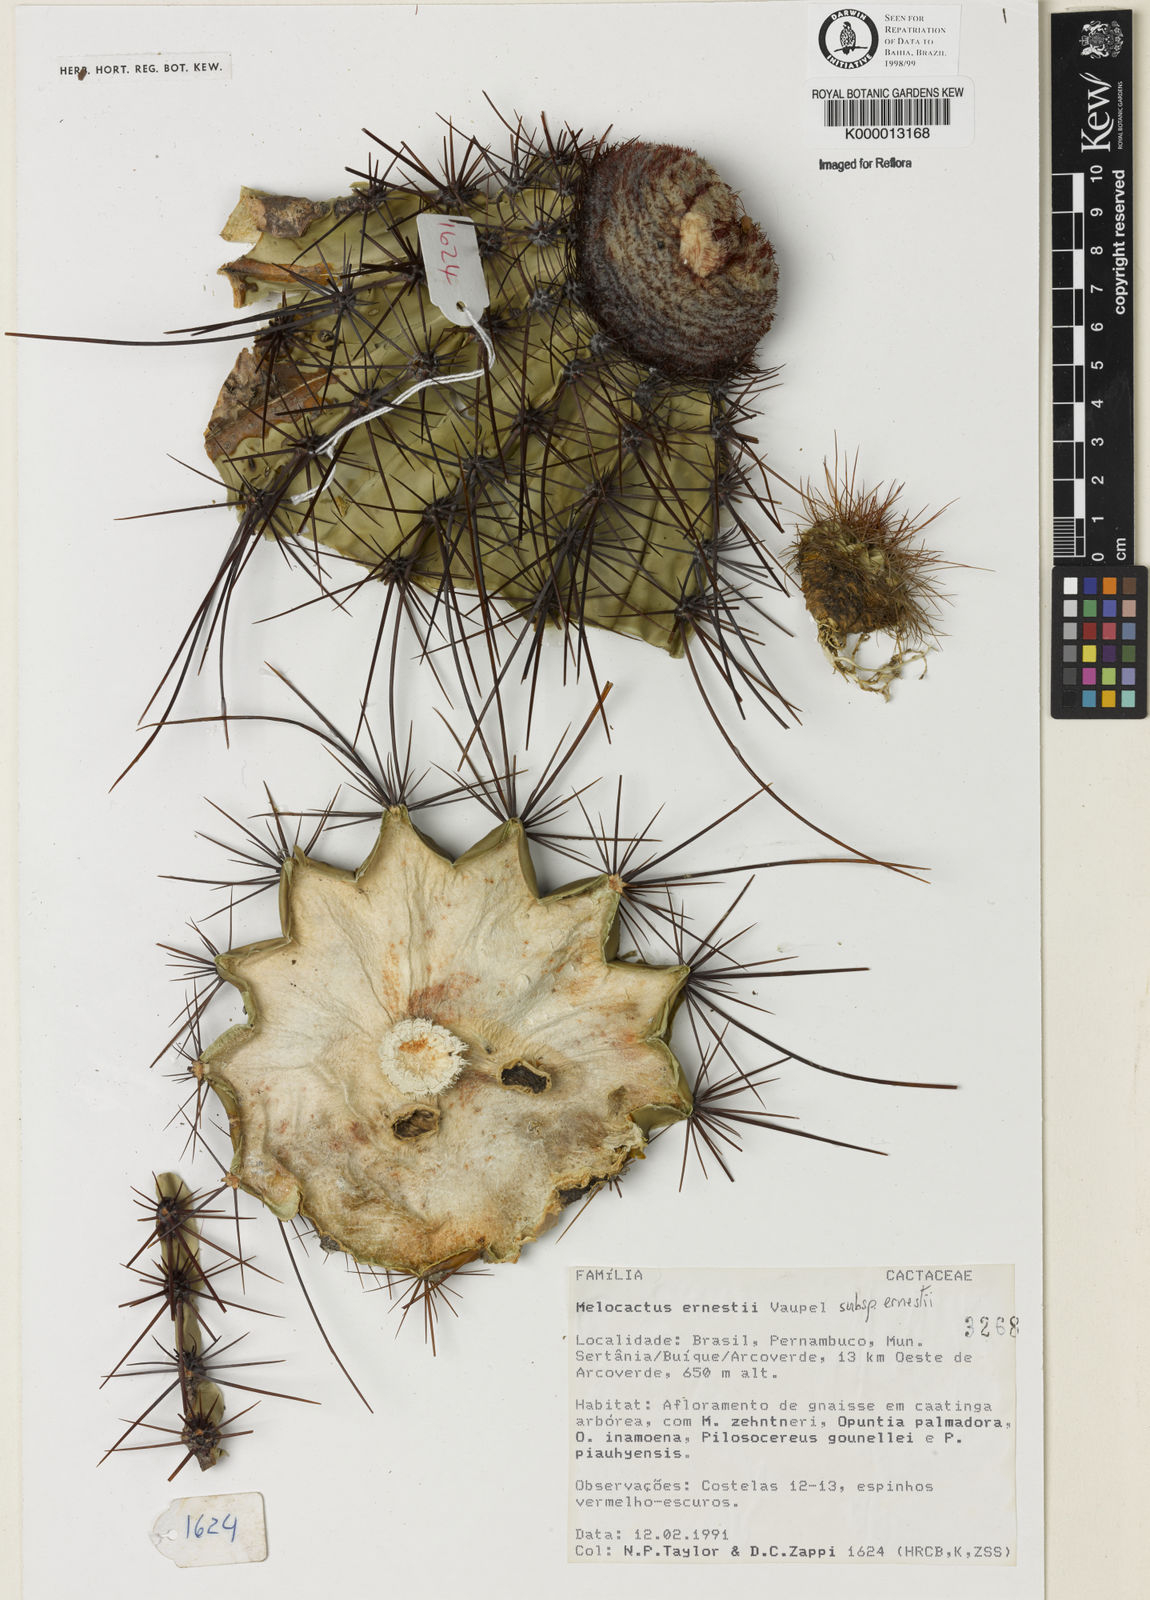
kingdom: Plantae
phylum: Tracheophyta
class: Magnoliopsida
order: Caryophyllales
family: Cactaceae
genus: Melocactus
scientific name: Melocactus ernestii
